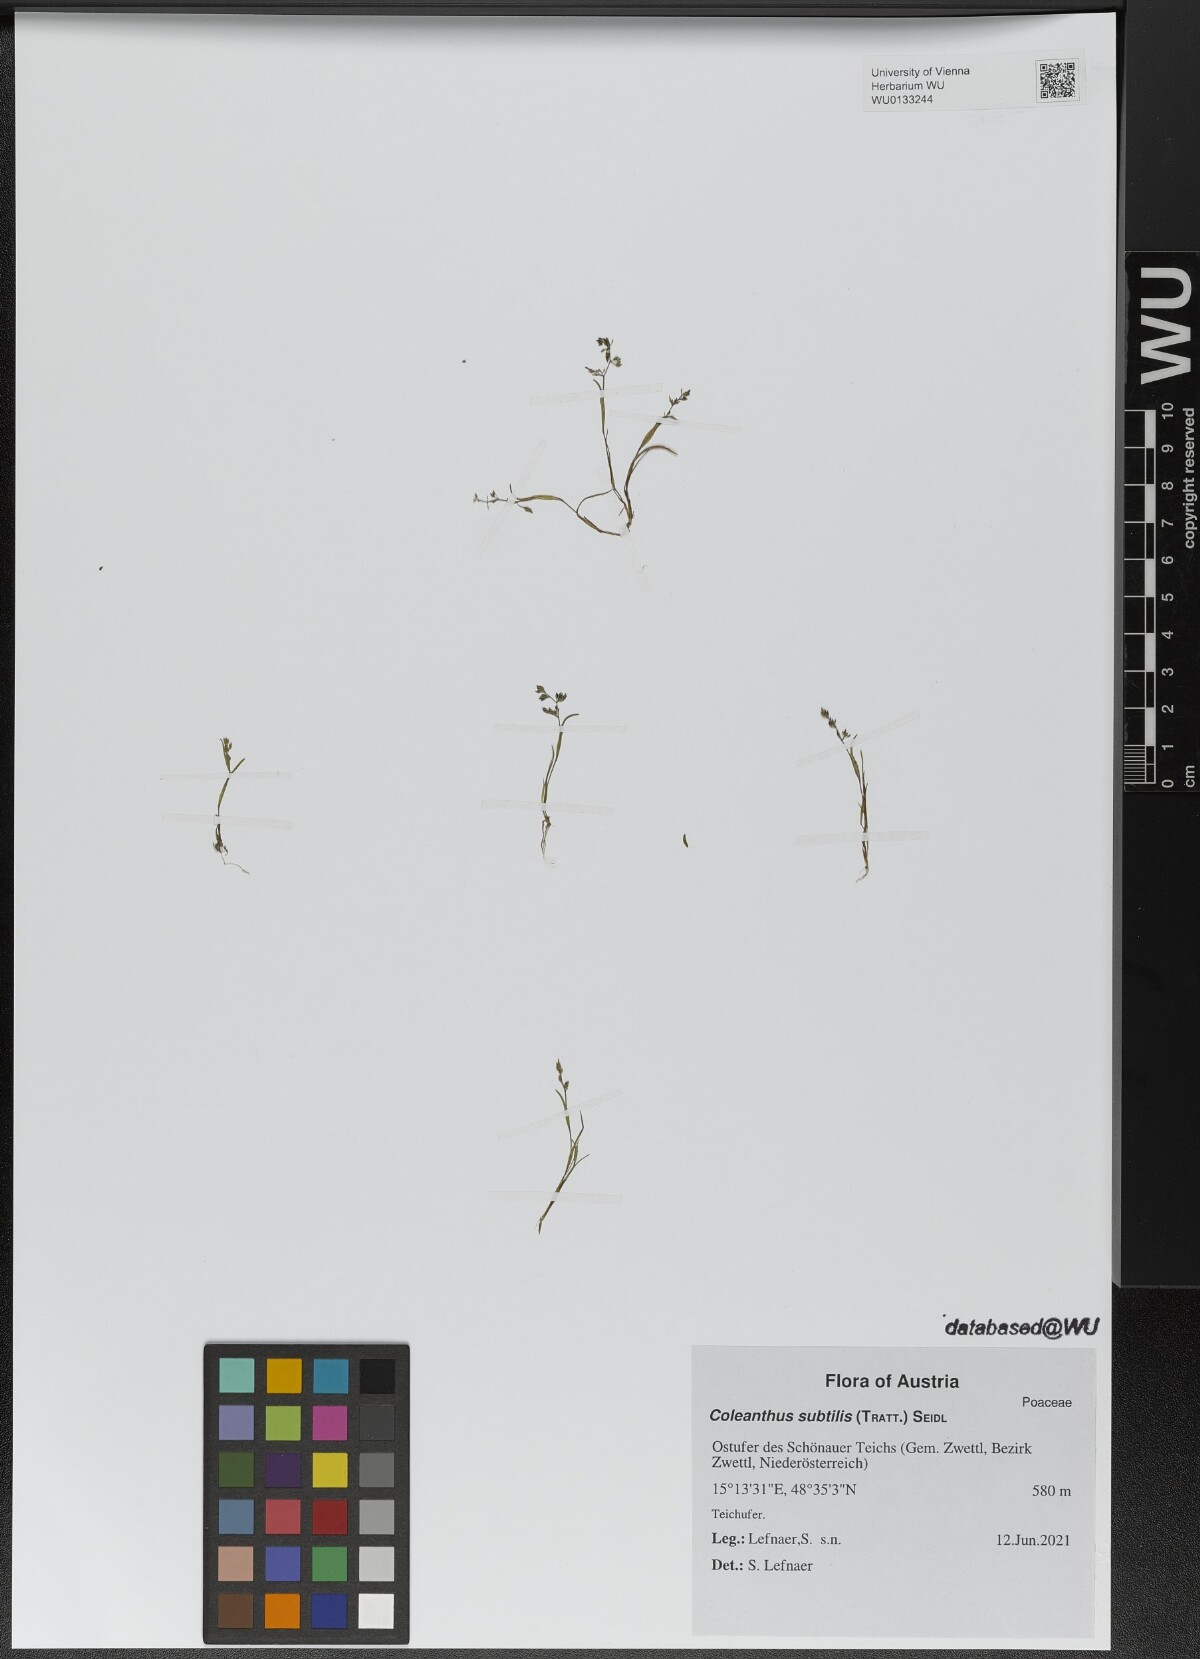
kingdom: Plantae
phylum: Tracheophyta
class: Liliopsida
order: Poales
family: Poaceae
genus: Coleanthus
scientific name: Coleanthus subtilis
